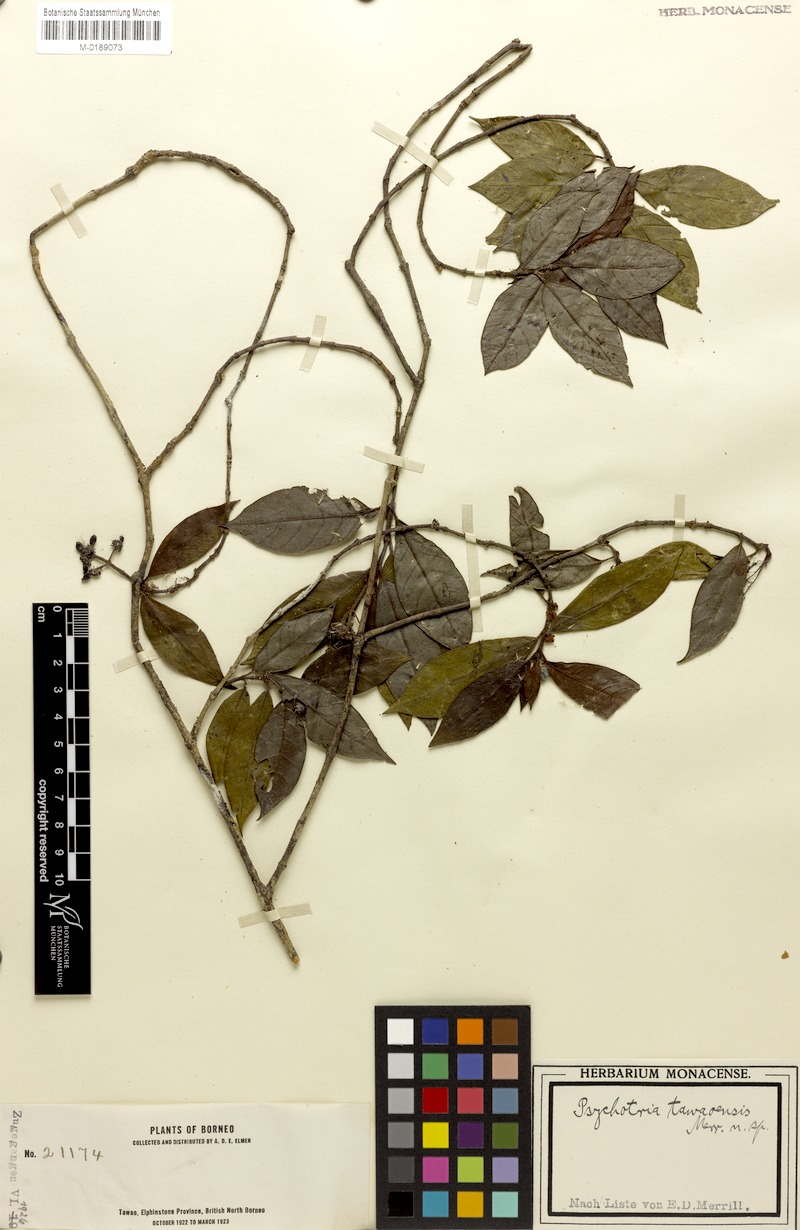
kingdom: Plantae
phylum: Tracheophyta
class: Magnoliopsida
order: Gentianales
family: Rubiaceae
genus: Psychotria
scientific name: Psychotria tawaensis
